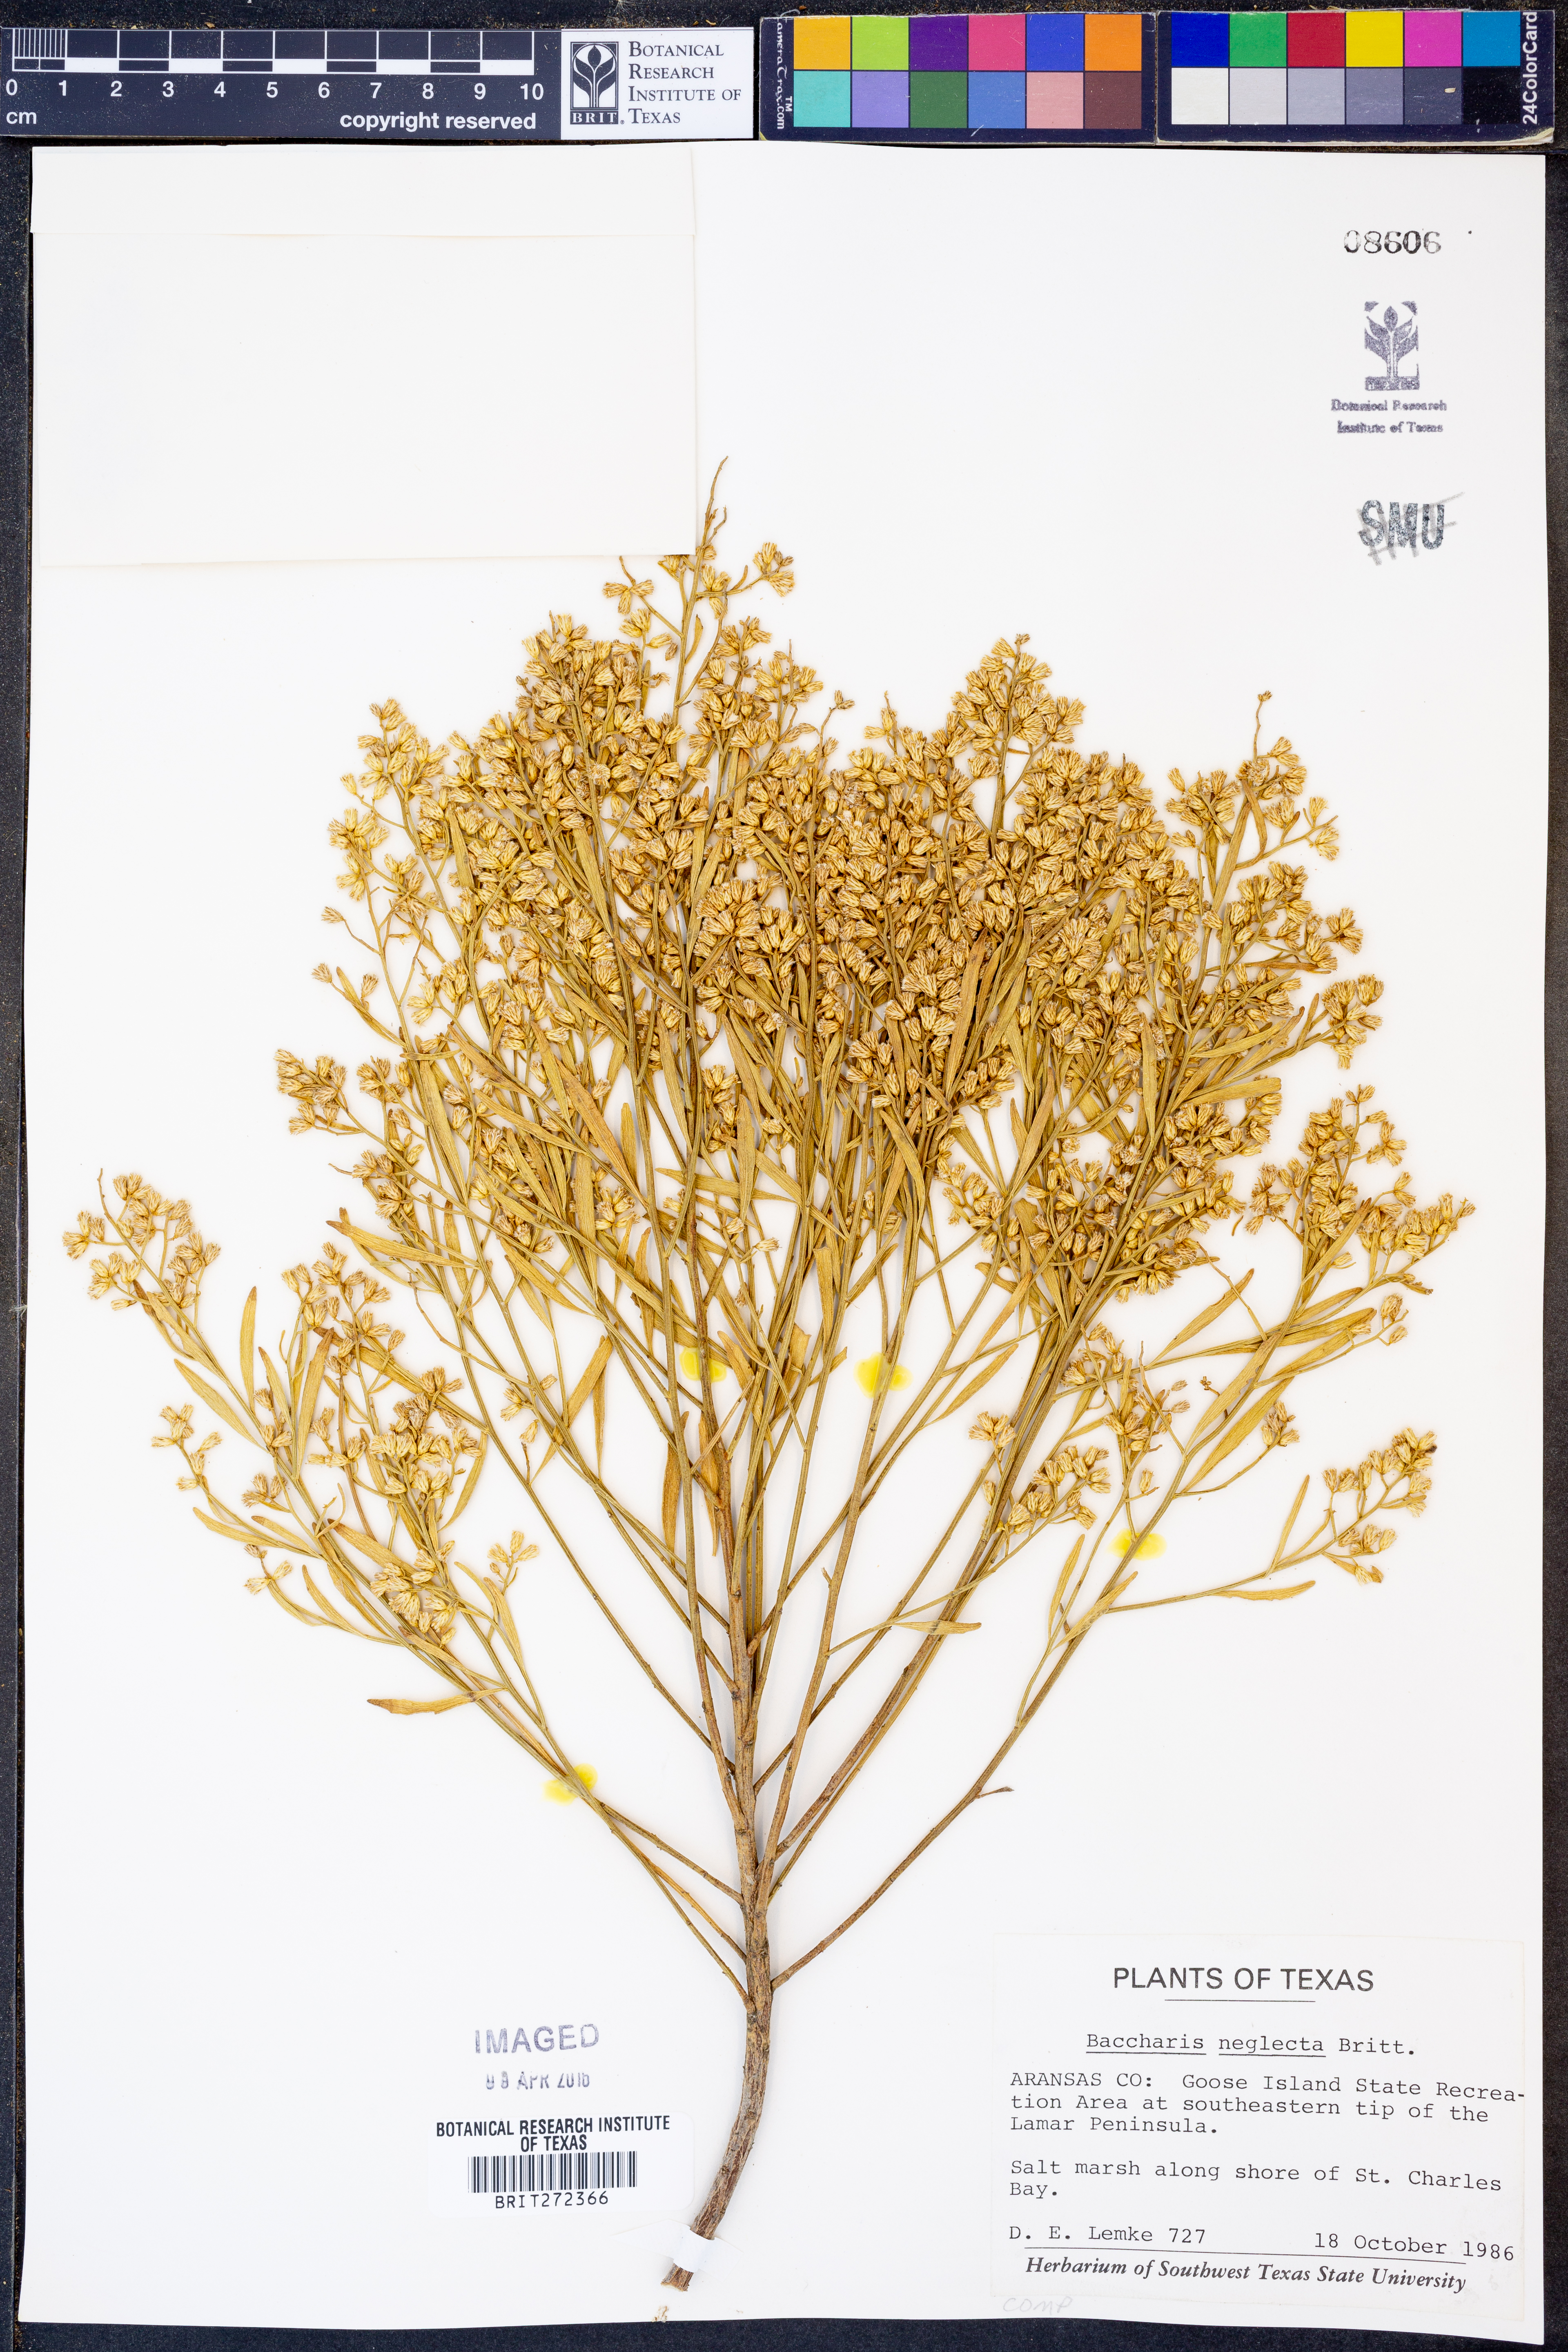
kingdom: Plantae
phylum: Tracheophyta
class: Magnoliopsida
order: Asterales
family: Asteraceae
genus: Baccharis
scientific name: Baccharis neglecta
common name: Roosevelt-weed
